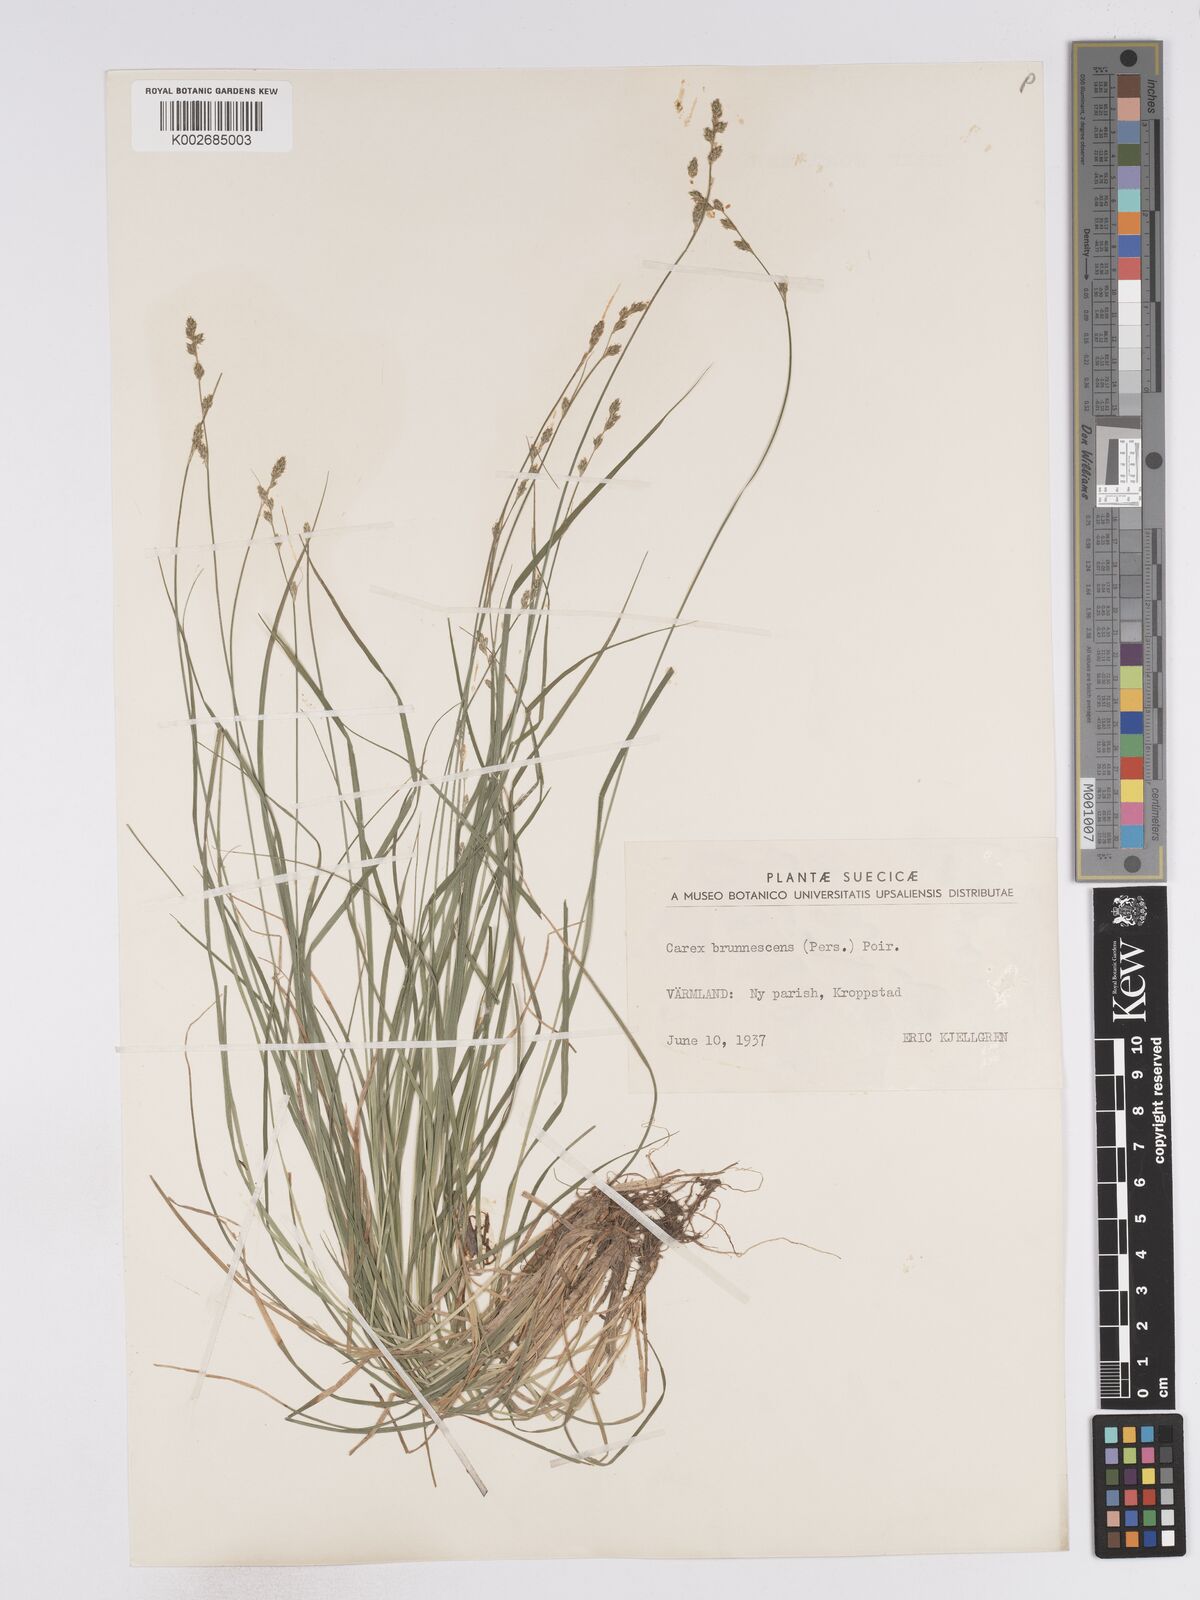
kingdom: Plantae
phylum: Tracheophyta
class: Liliopsida
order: Poales
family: Cyperaceae
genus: Carex
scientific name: Carex brunnescens
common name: Brown sedge
